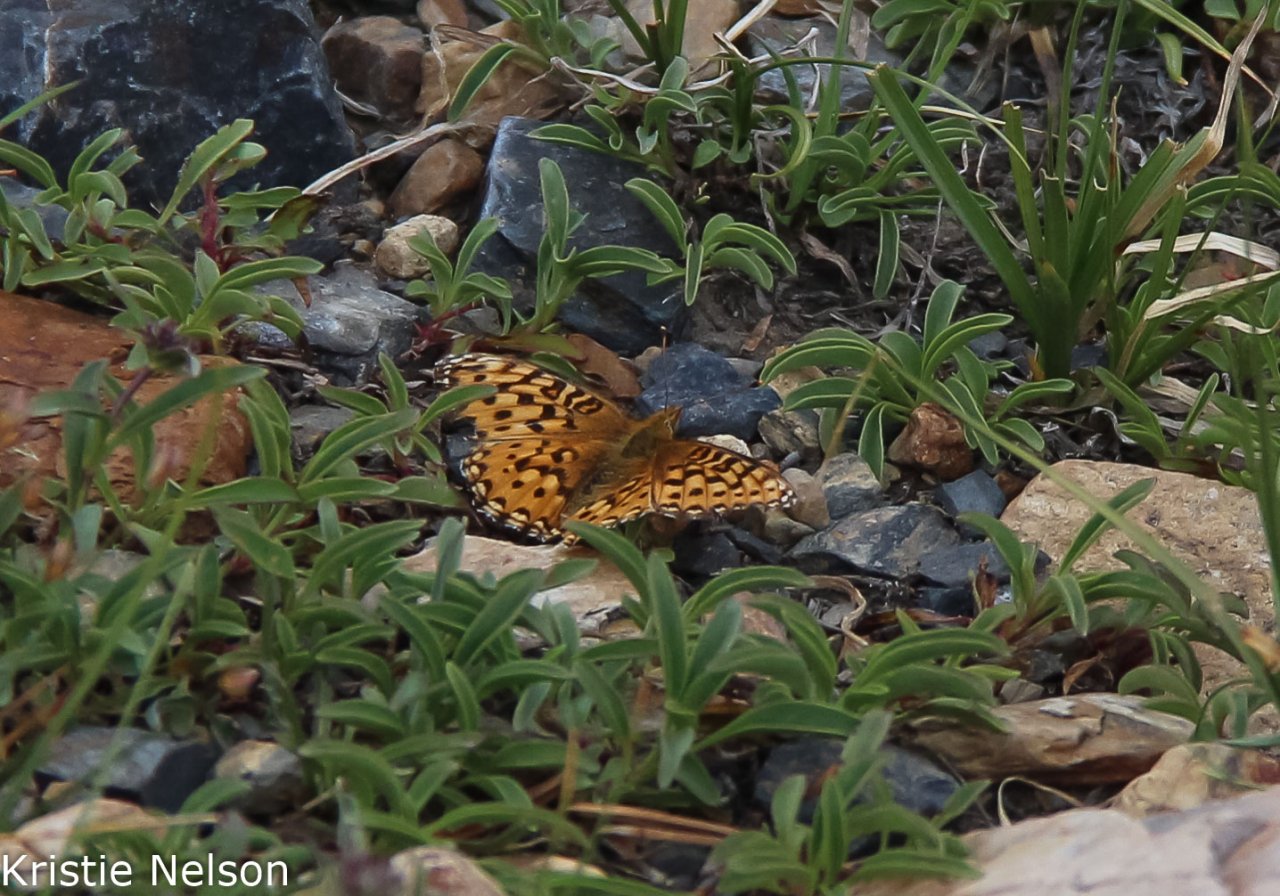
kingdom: Animalia
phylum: Arthropoda
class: Insecta
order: Lepidoptera
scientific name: Lepidoptera
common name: Butterflies
